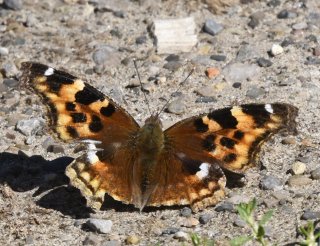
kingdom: Animalia
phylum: Arthropoda
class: Insecta
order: Lepidoptera
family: Nymphalidae
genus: Polygonia
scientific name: Polygonia vaualbum
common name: Compton Tortoiseshell
